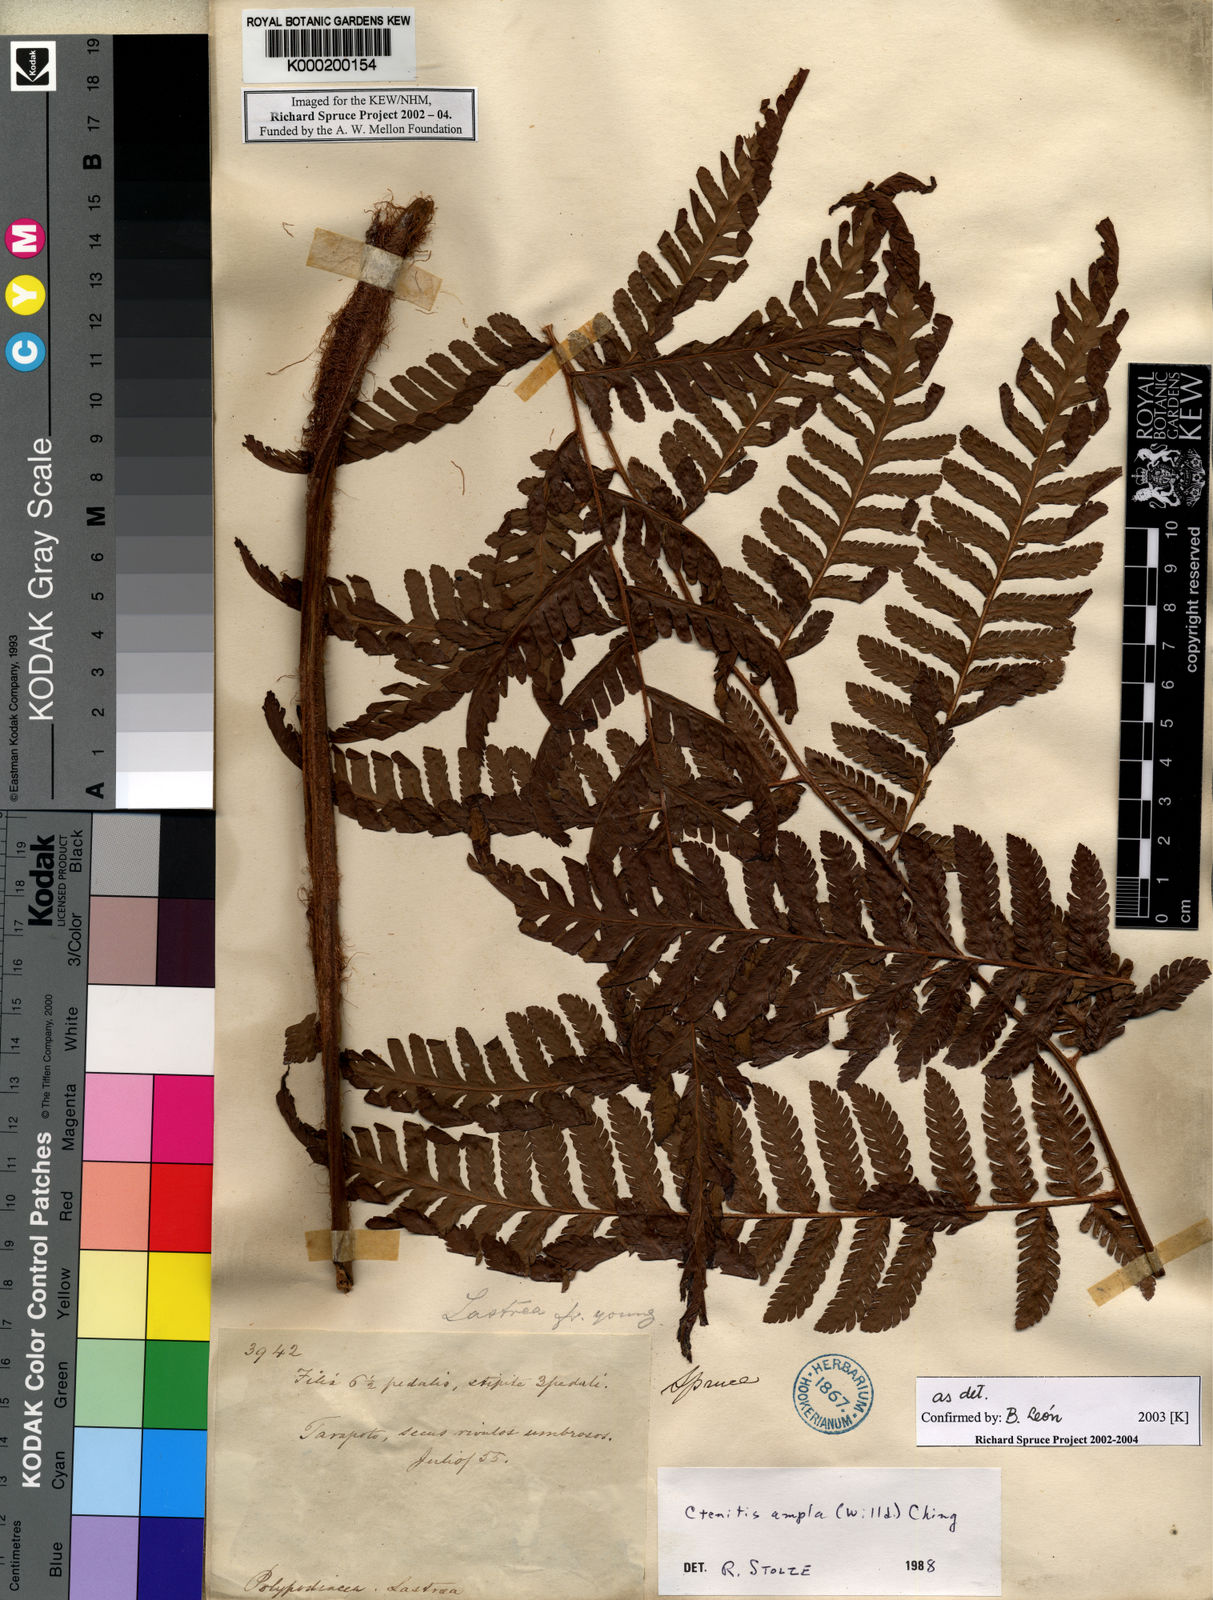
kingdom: Plantae
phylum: Tracheophyta
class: Polypodiopsida
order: Polypodiales
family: Dryopteridaceae
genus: Ctenitis
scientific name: Ctenitis sloanei
